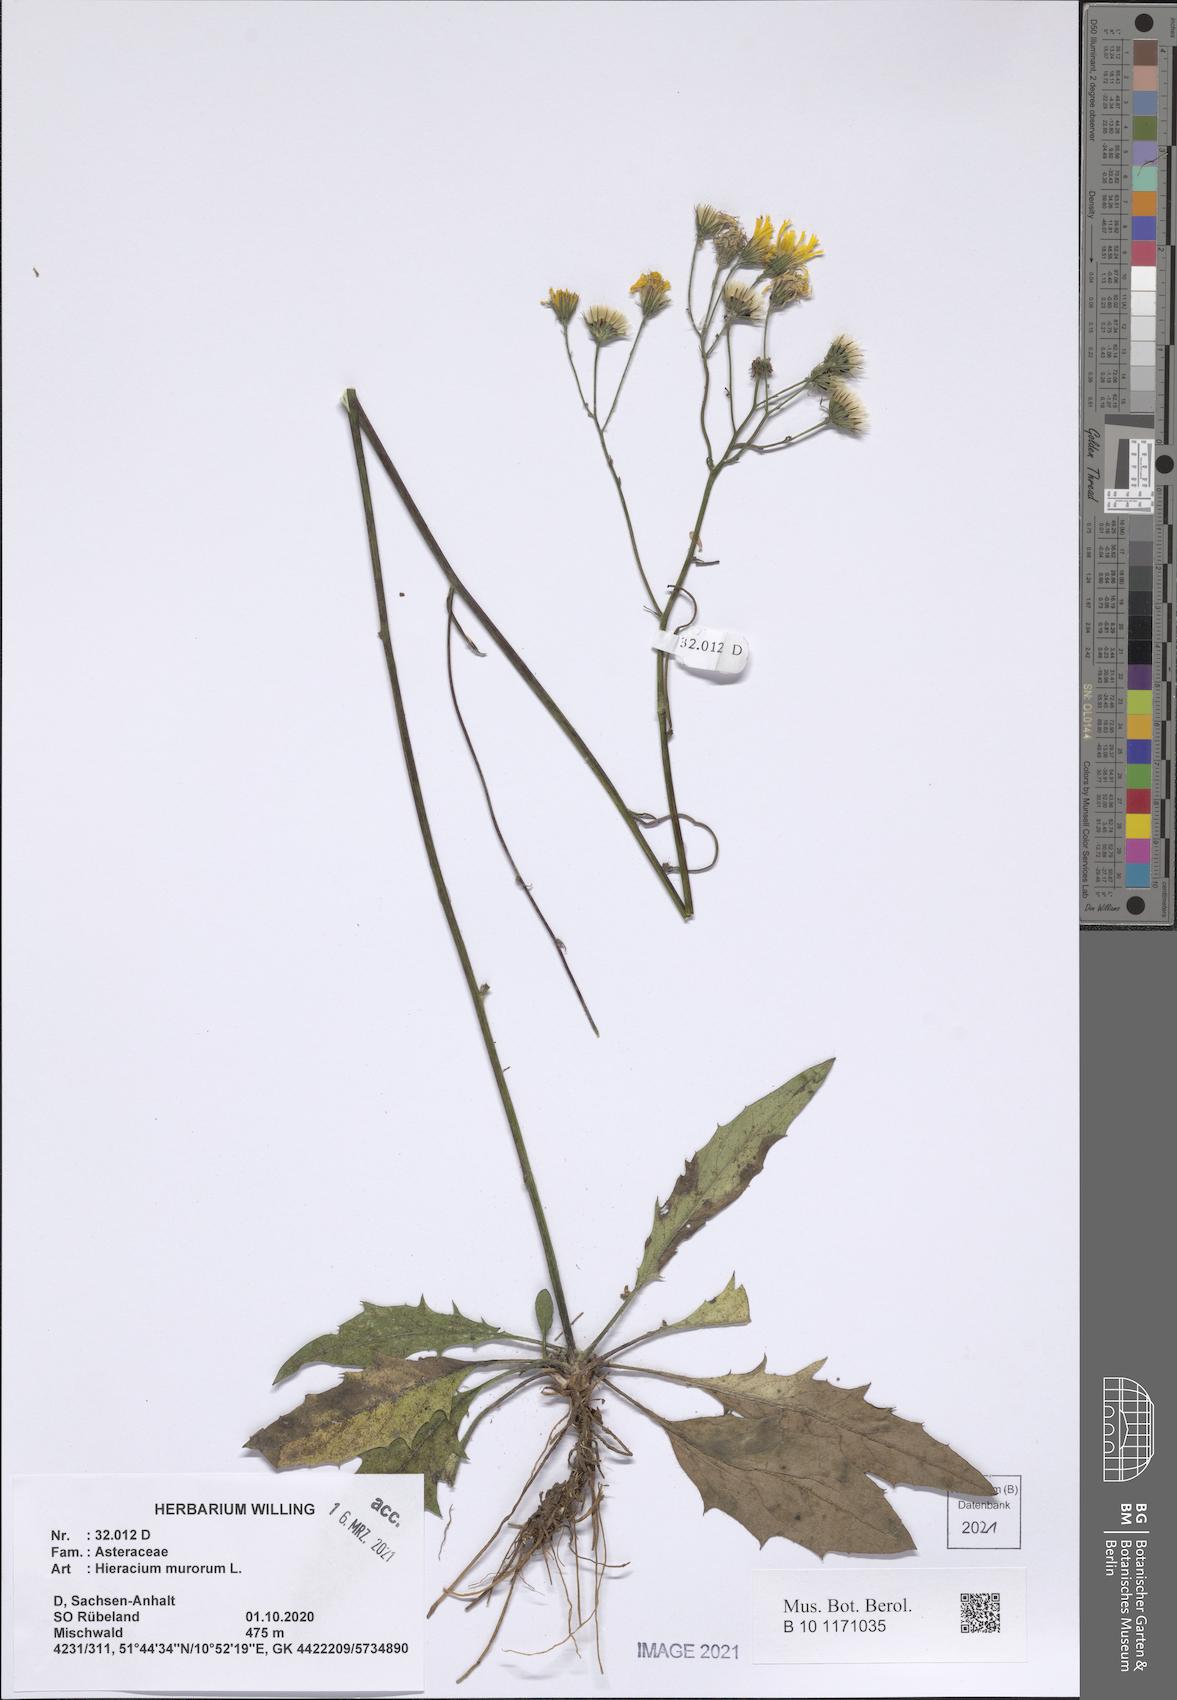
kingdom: Plantae
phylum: Tracheophyta
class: Magnoliopsida
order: Asterales
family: Asteraceae
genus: Hieracium
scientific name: Hieracium murorum
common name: Wall hawkweed
